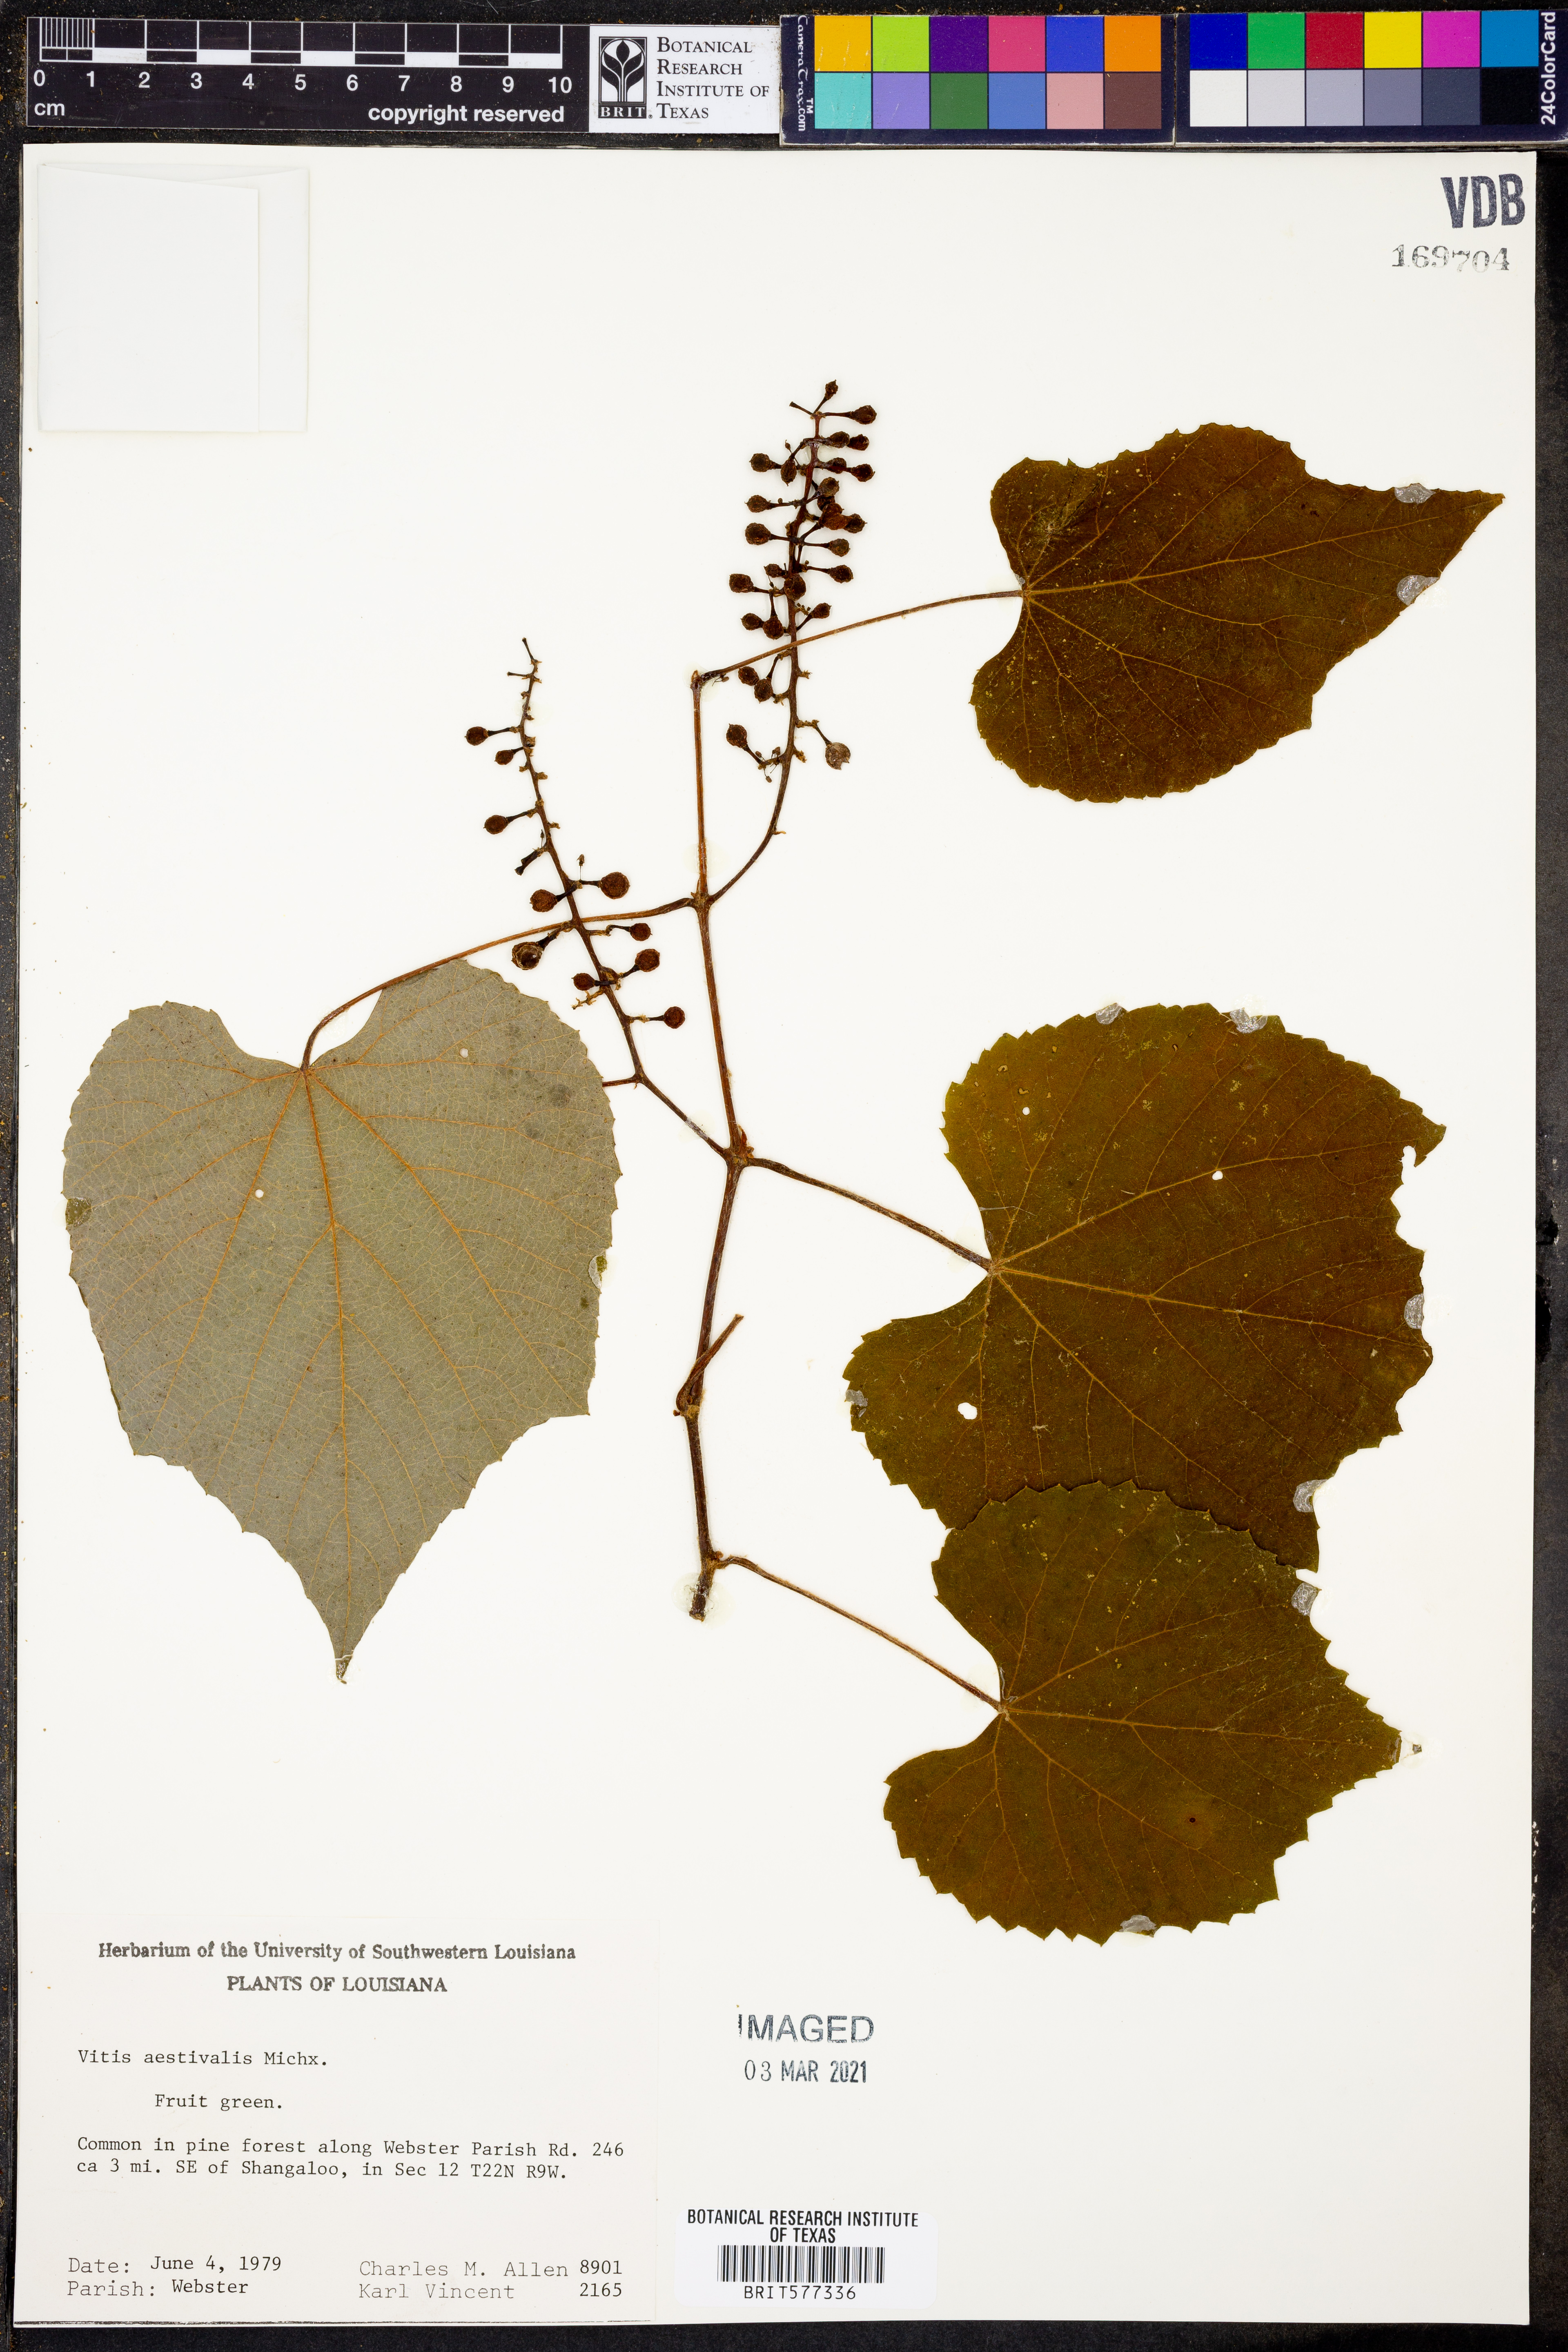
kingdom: Plantae
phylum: Tracheophyta
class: Magnoliopsida
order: Vitales
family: Vitaceae
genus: Vitis
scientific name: Vitis aestivalis
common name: Pigeon grape
